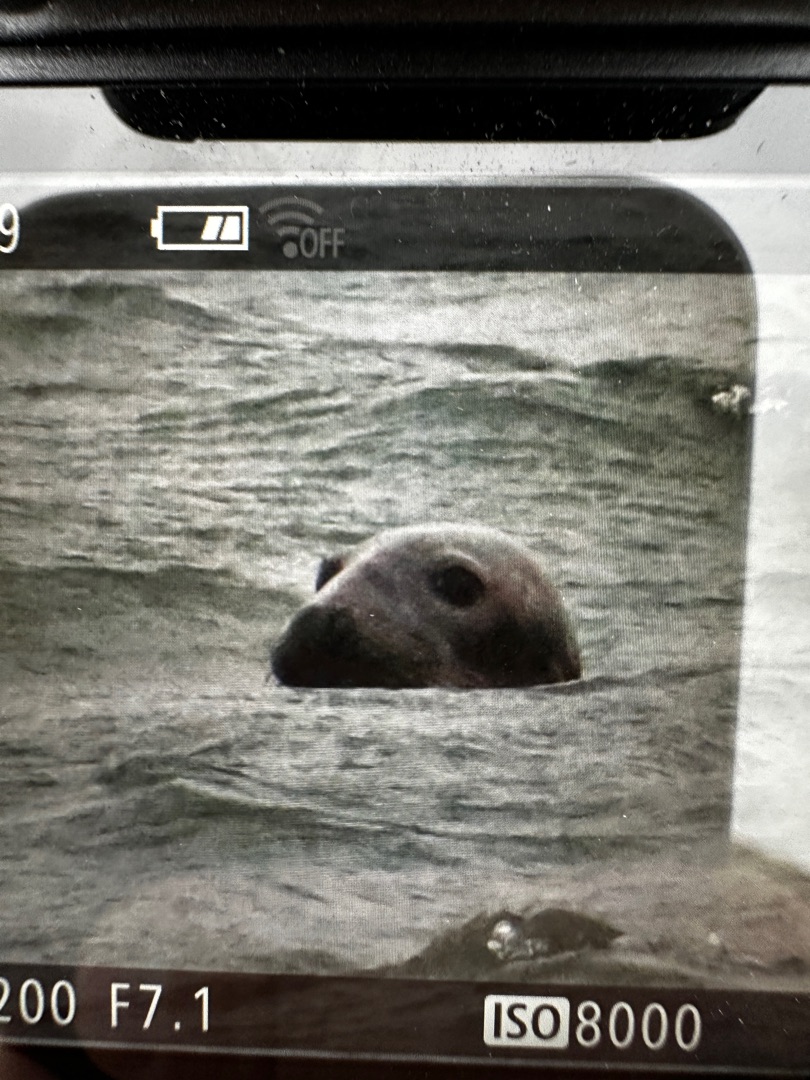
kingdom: Animalia
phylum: Chordata
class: Mammalia
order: Carnivora
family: Phocidae
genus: Halichoerus
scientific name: Halichoerus grypus
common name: Gråsæl
